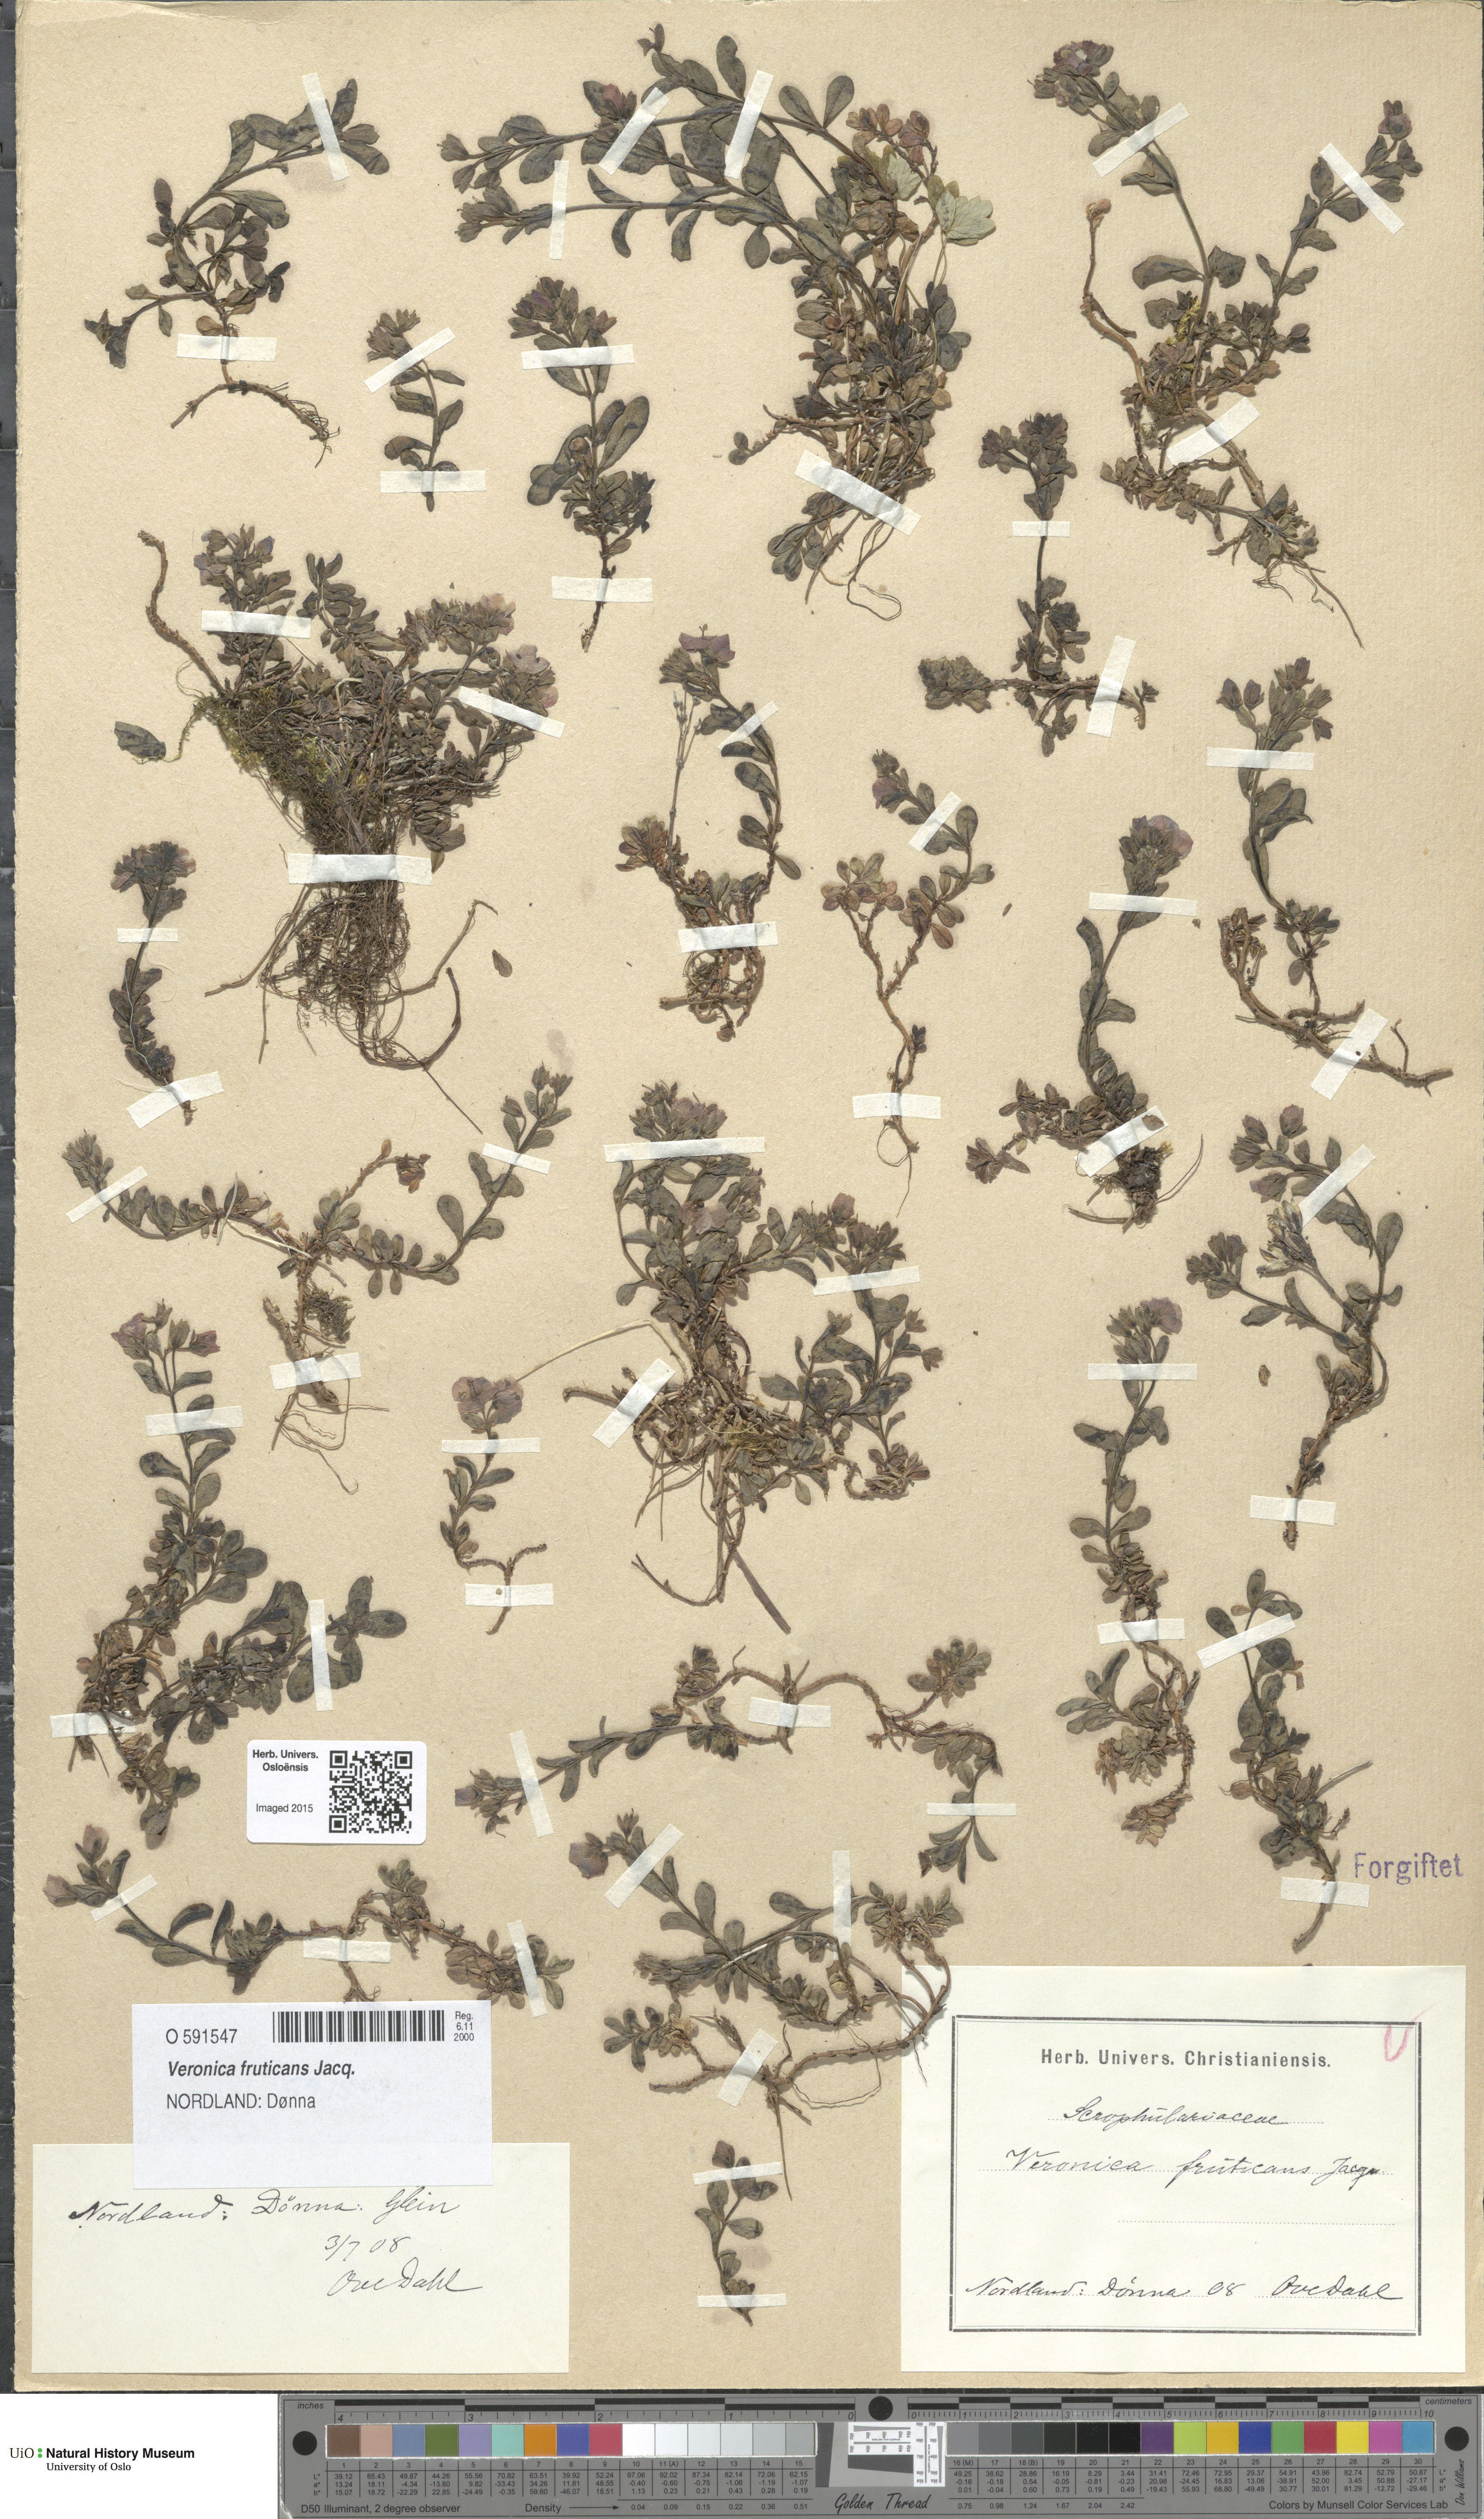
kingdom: Plantae
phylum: Tracheophyta
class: Magnoliopsida
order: Lamiales
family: Plantaginaceae
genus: Veronica
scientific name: Veronica fruticans
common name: Rock speedwell
